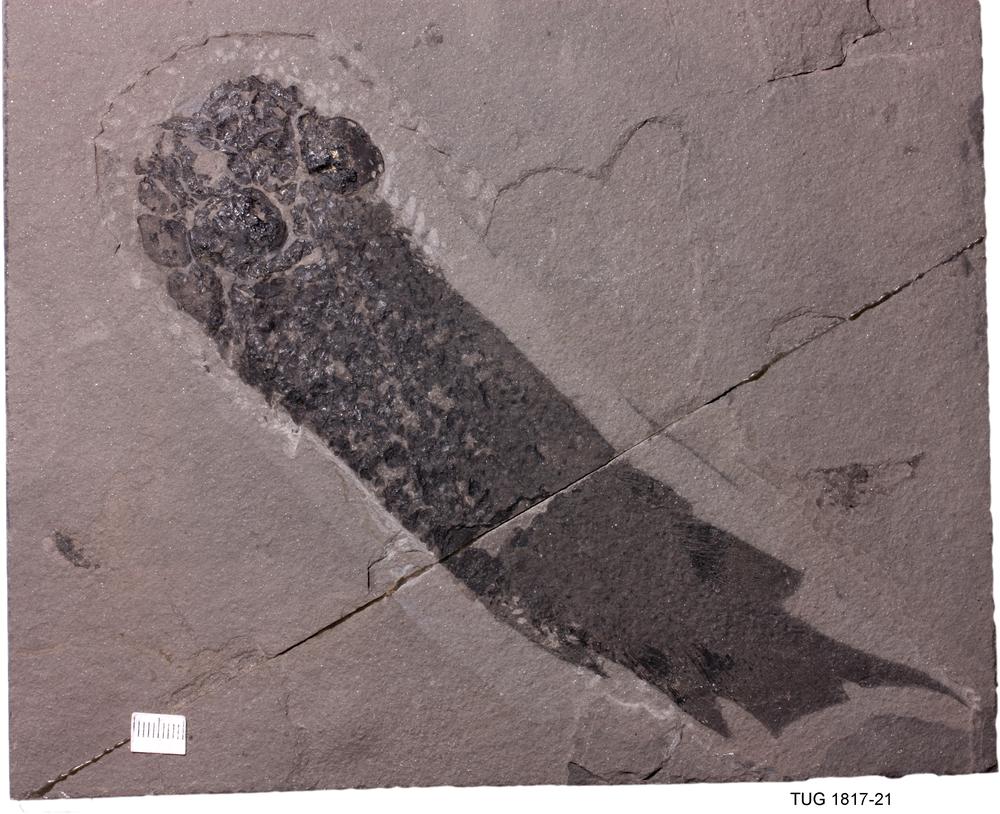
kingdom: Animalia
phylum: Chordata
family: Dipteridae
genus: Dipterus
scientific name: Dipterus valenciennesi
